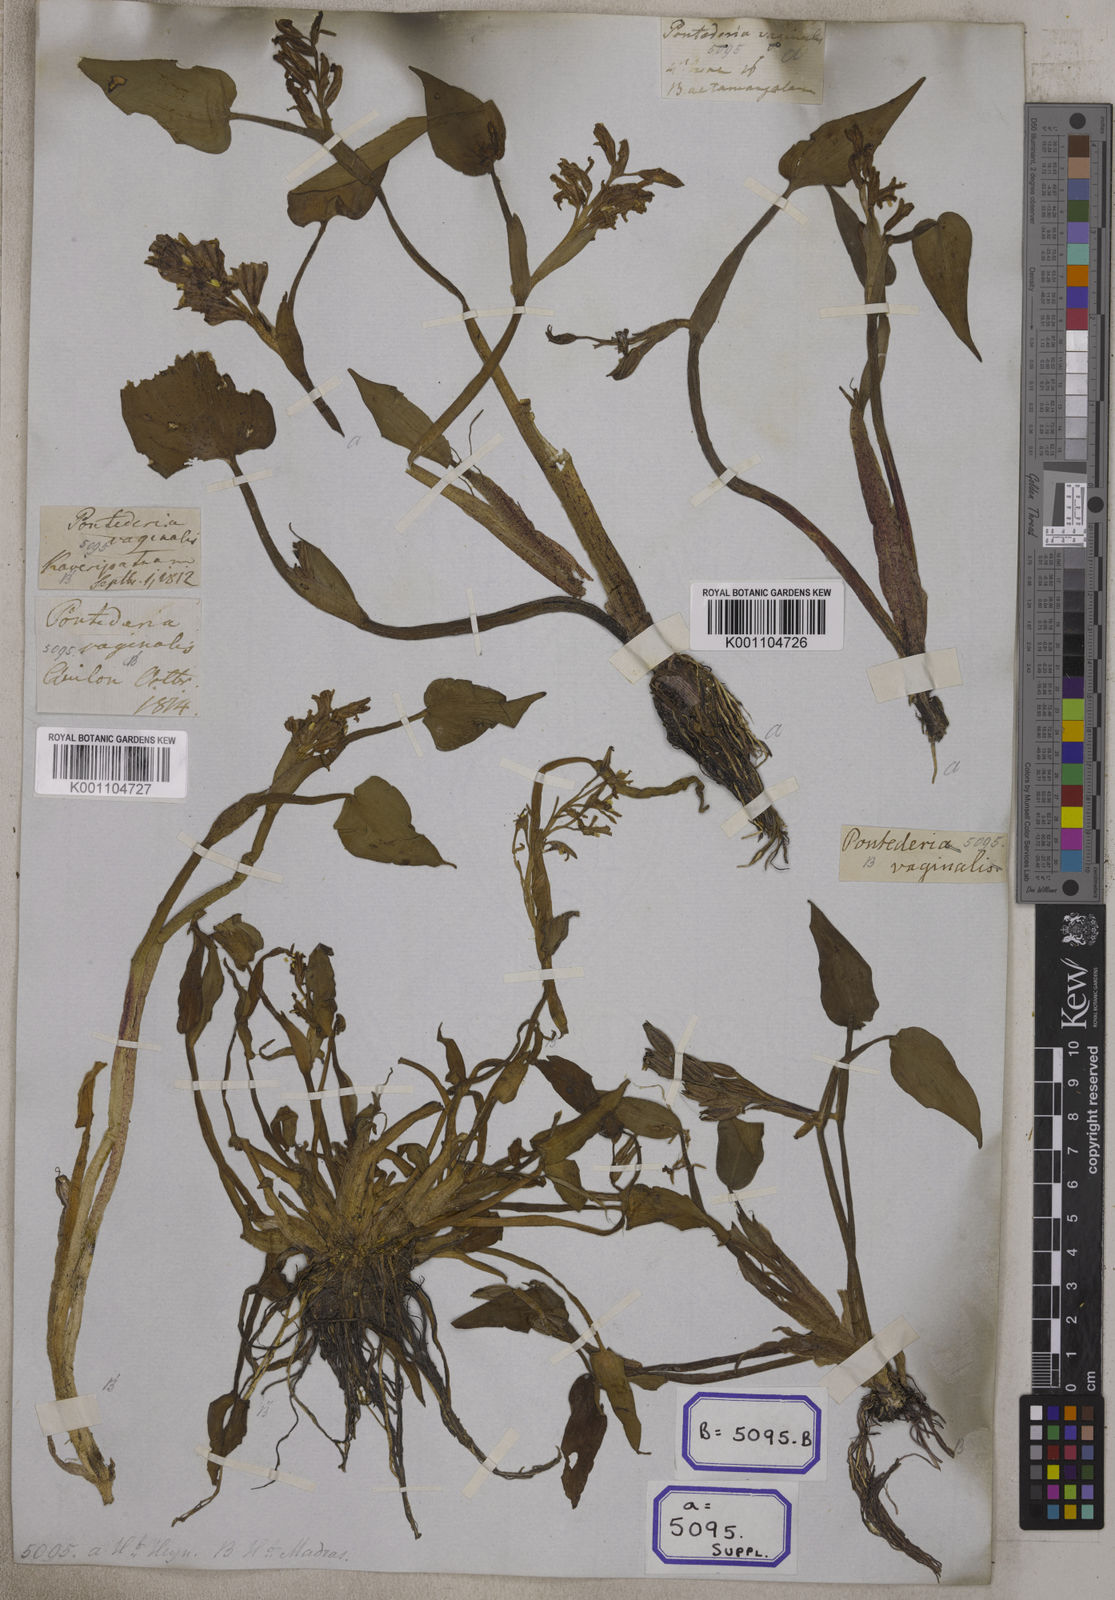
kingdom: Plantae
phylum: Tracheophyta
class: Liliopsida
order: Commelinales
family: Pontederiaceae
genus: Pontederia
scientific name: Pontederia
